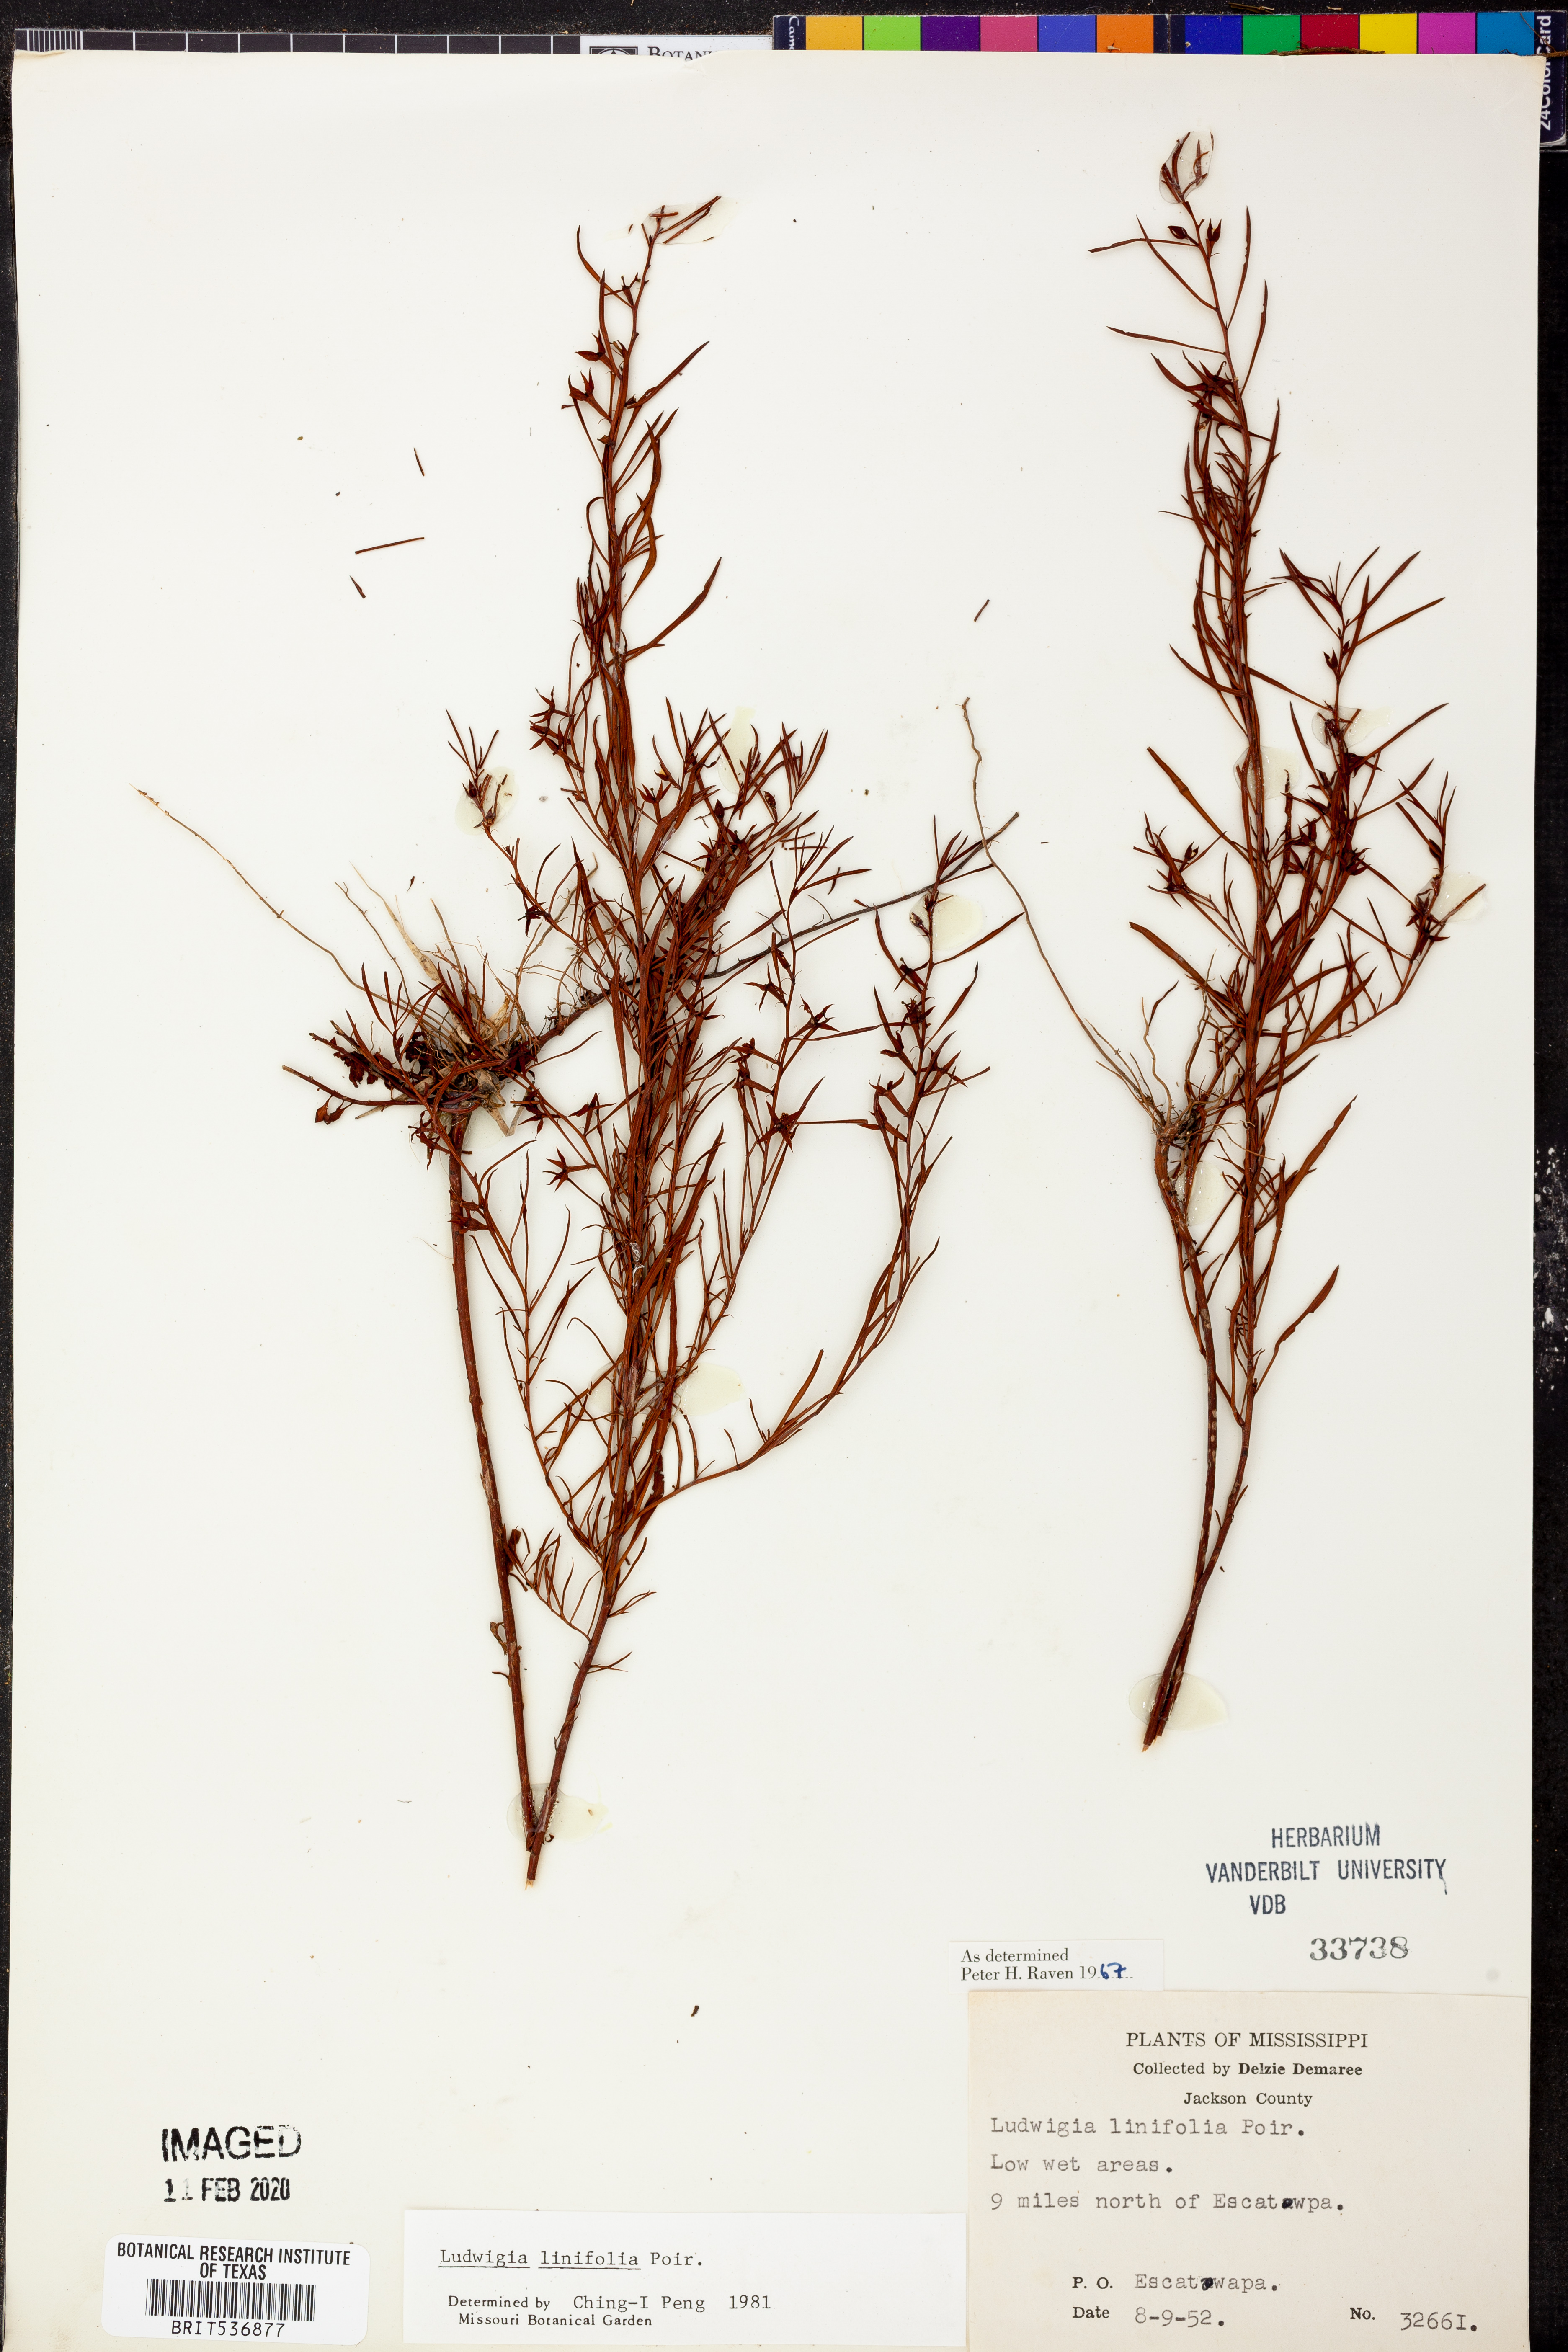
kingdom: Plantae
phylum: Tracheophyta
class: Magnoliopsida
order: Myrtales
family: Onagraceae
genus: Ludwigia
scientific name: Ludwigia linifolia
